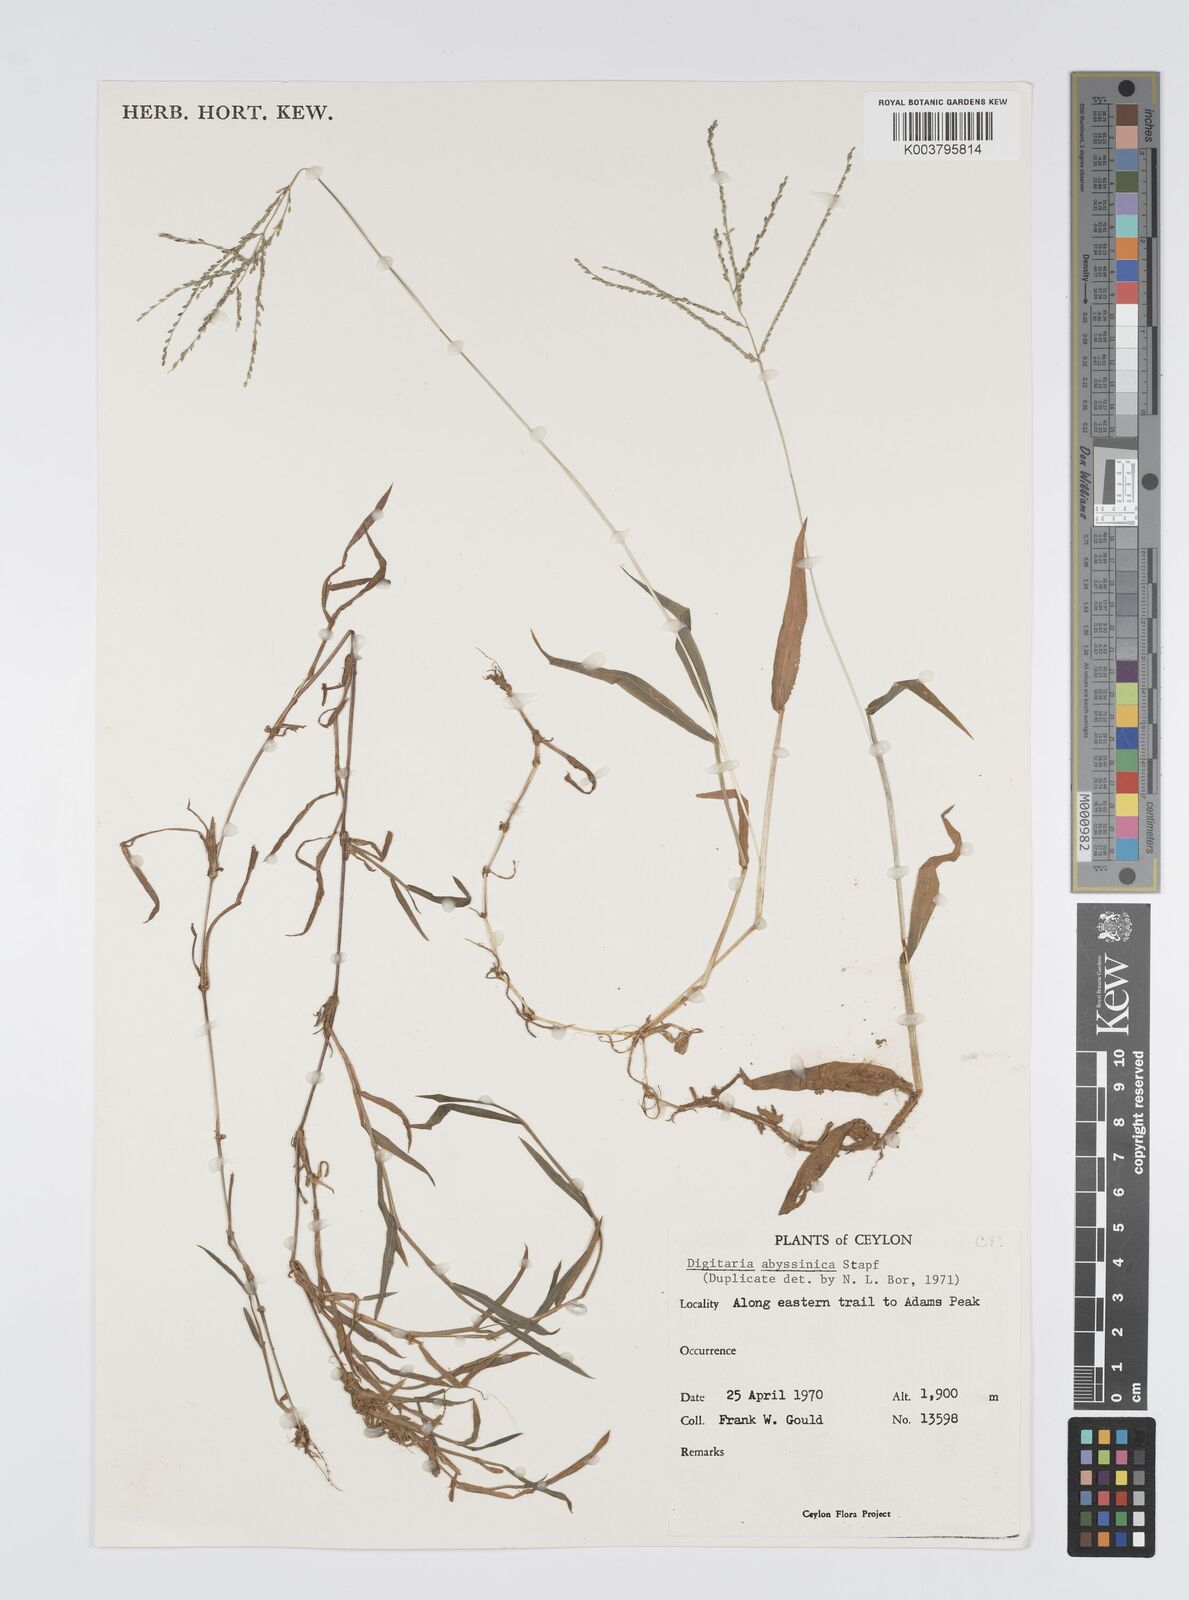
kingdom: Plantae
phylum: Tracheophyta
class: Liliopsida
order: Poales
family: Poaceae
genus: Digitaria
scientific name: Digitaria abyssinica
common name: African couchgrass
